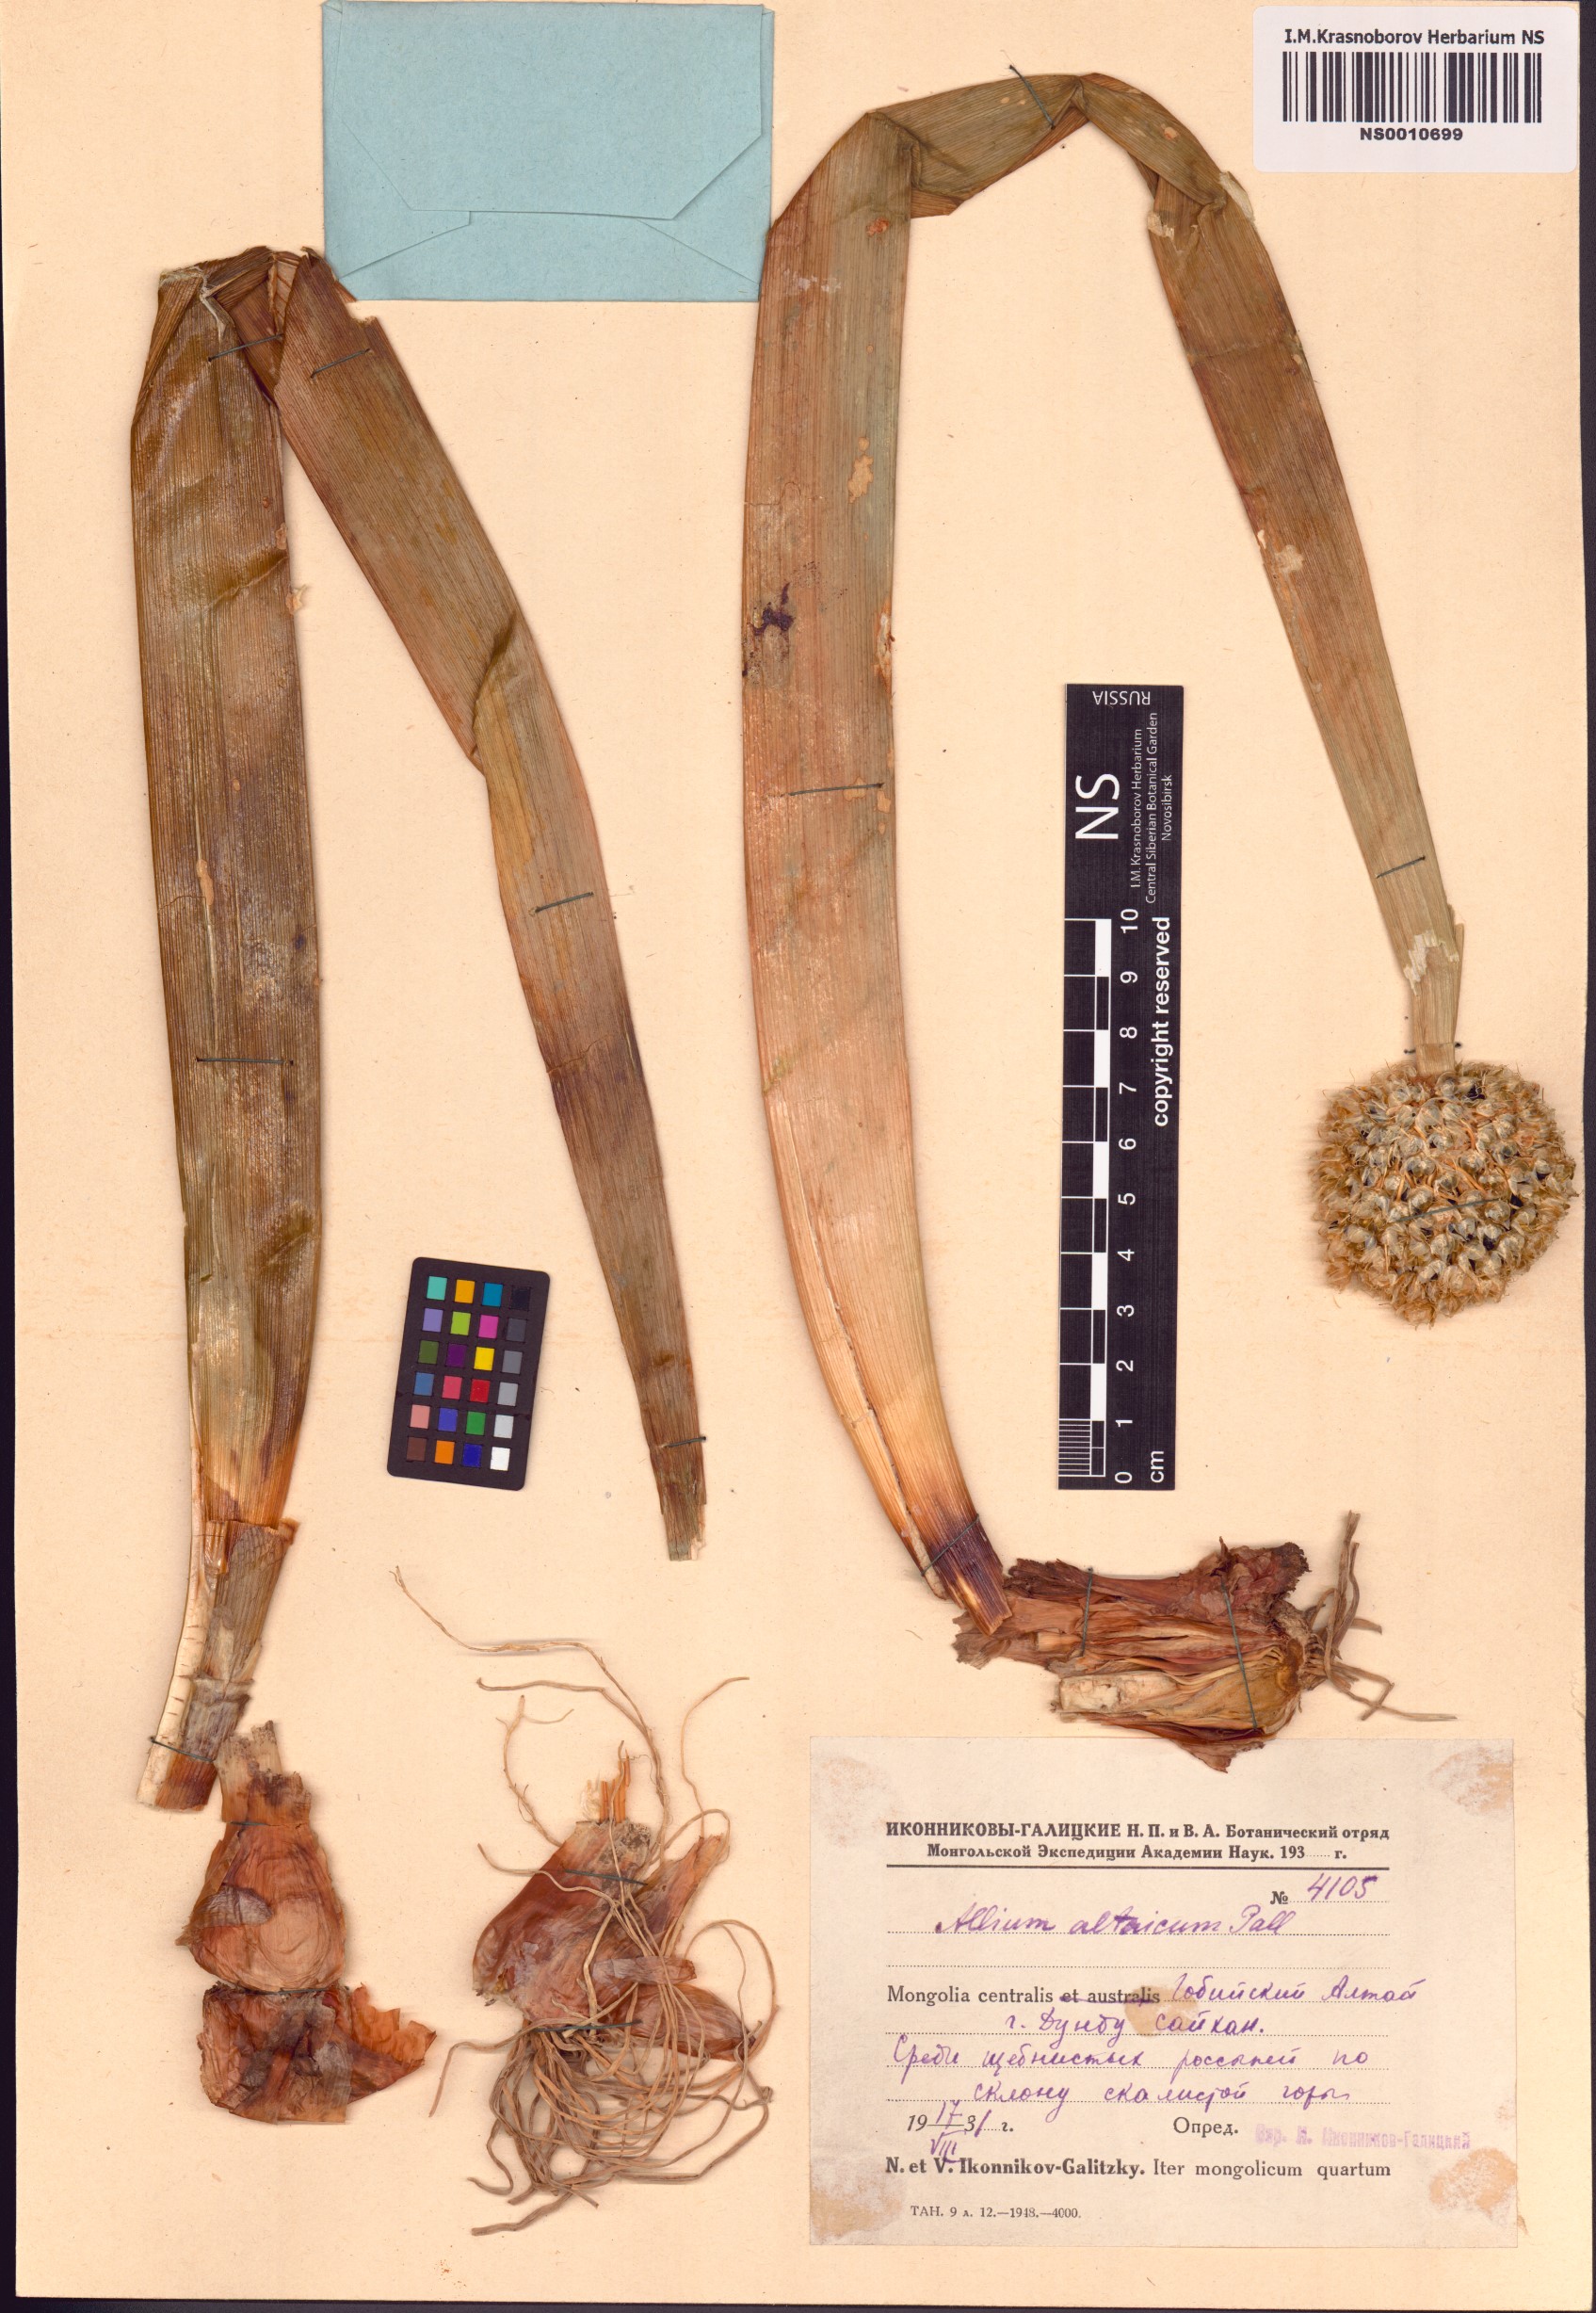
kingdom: Plantae
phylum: Tracheophyta
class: Liliopsida
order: Asparagales
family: Amaryllidaceae
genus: Allium
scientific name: Allium altaicum
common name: Altai onion
